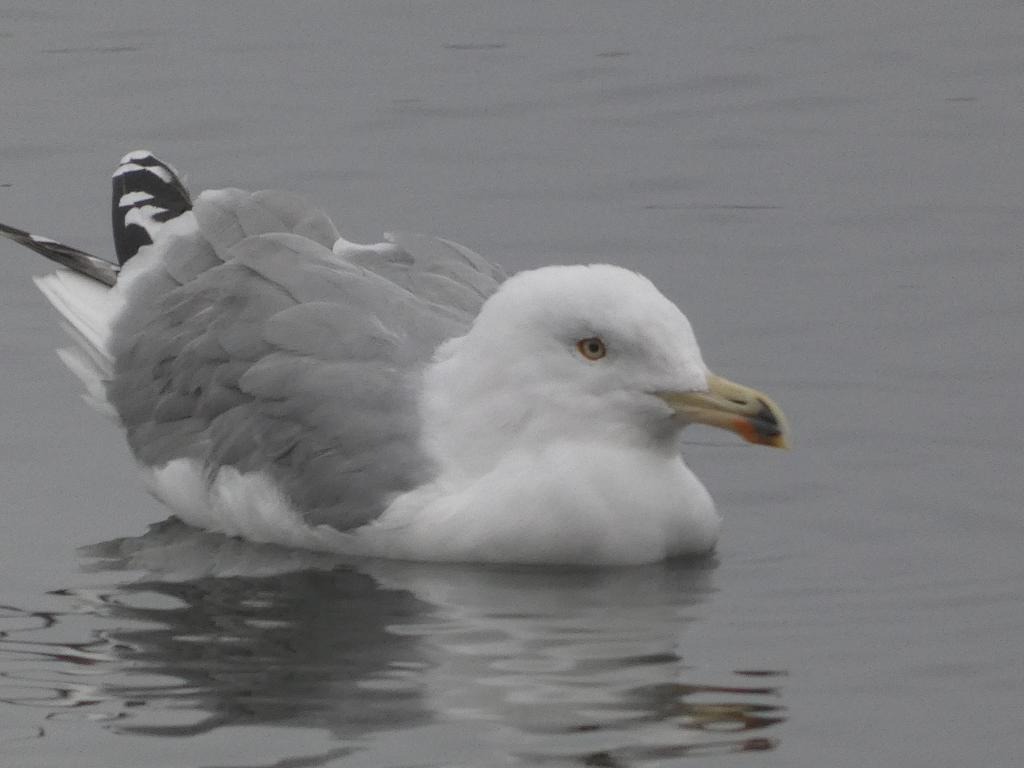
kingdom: Animalia
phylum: Chordata
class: Aves
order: Charadriiformes
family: Laridae
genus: Larus
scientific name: Larus argentatus
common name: Sølvmåge
